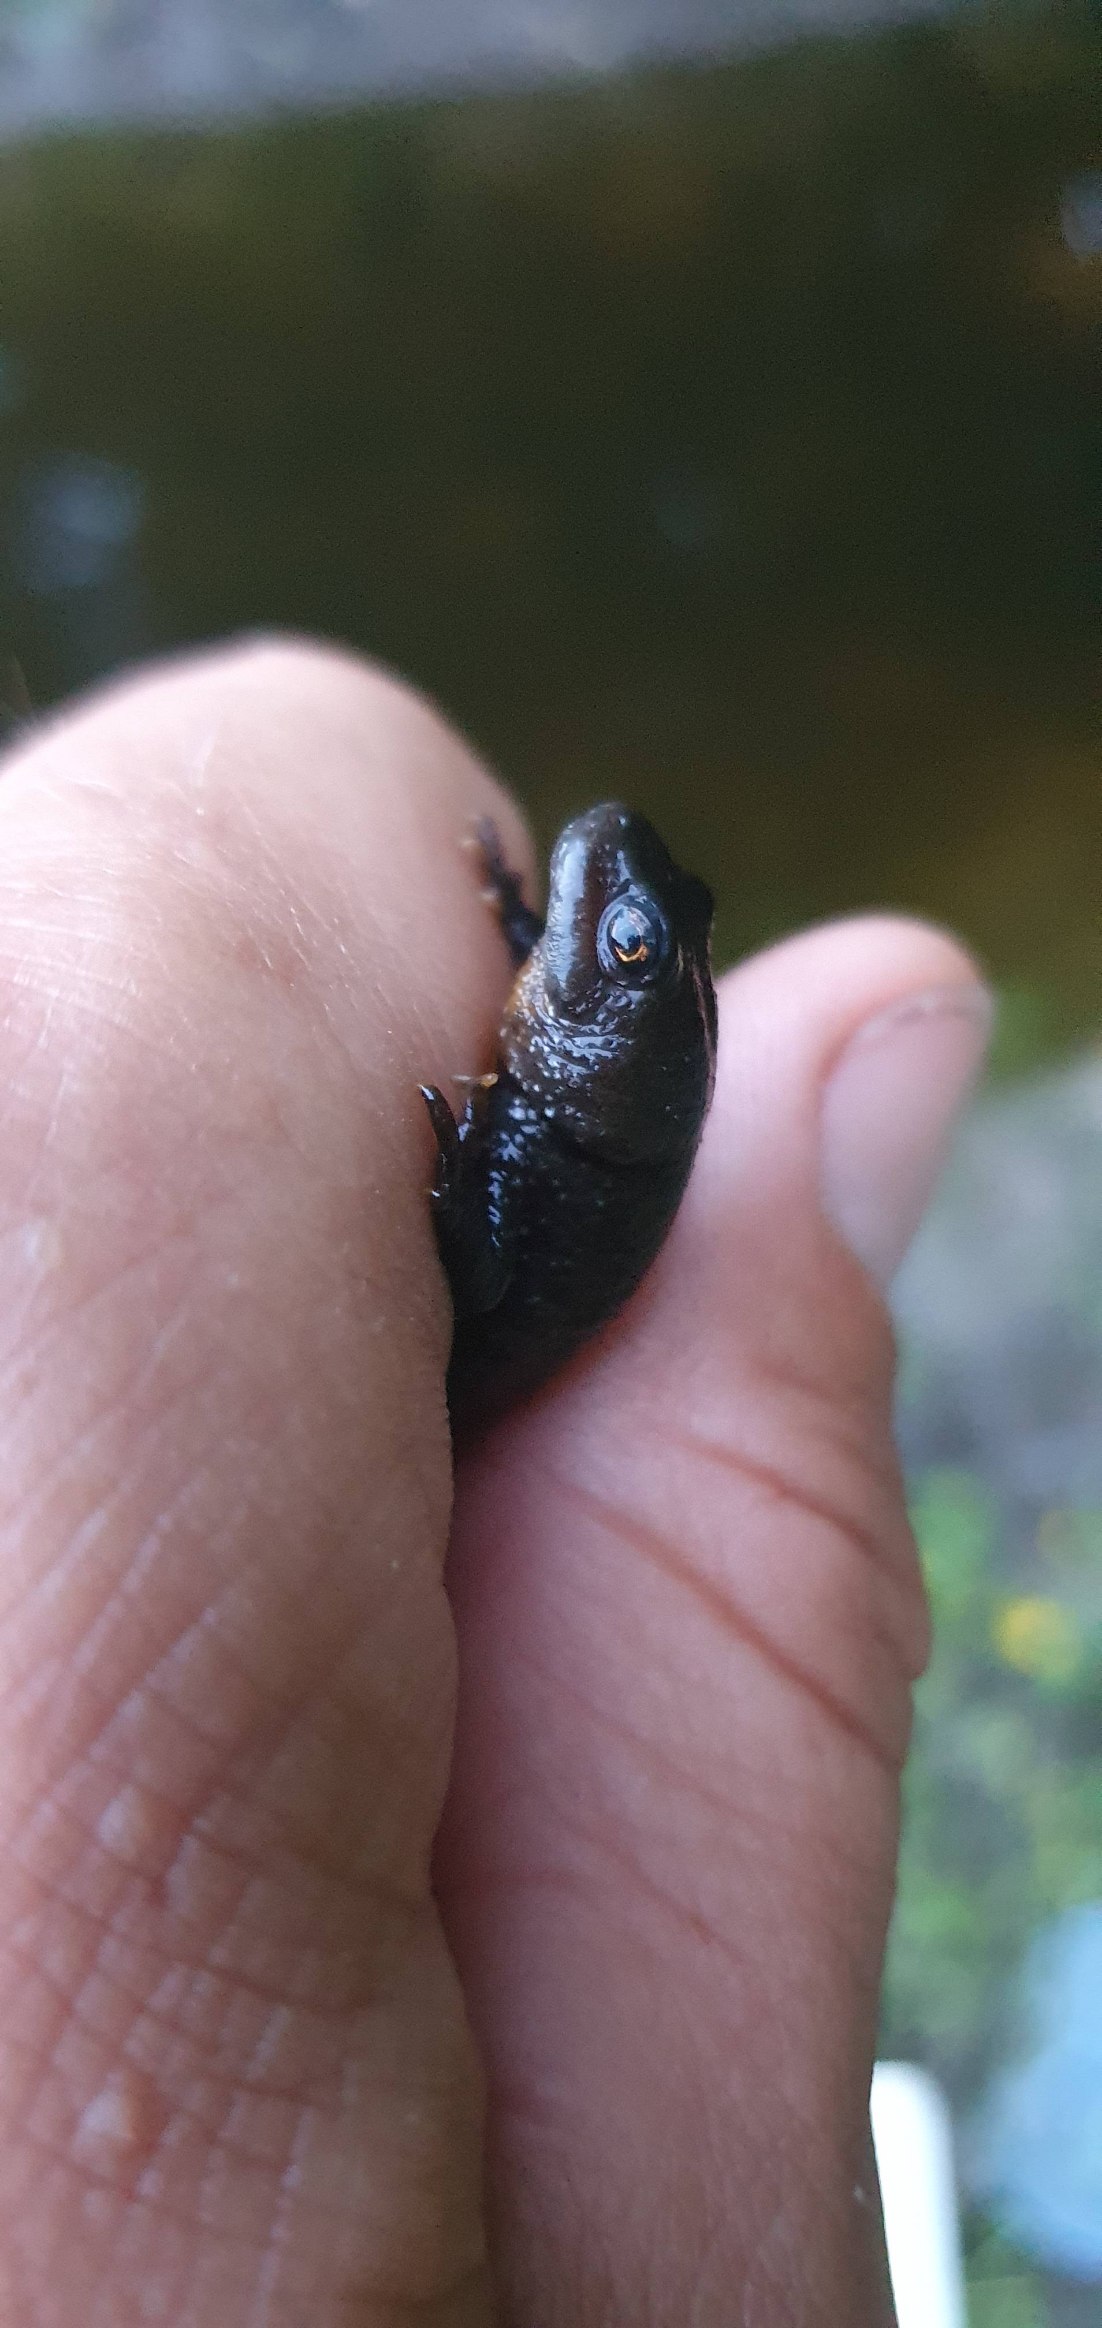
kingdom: Animalia
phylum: Chordata
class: Amphibia
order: Caudata
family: Salamandridae
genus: Triturus
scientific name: Triturus cristatus
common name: Stor vandsalamander
